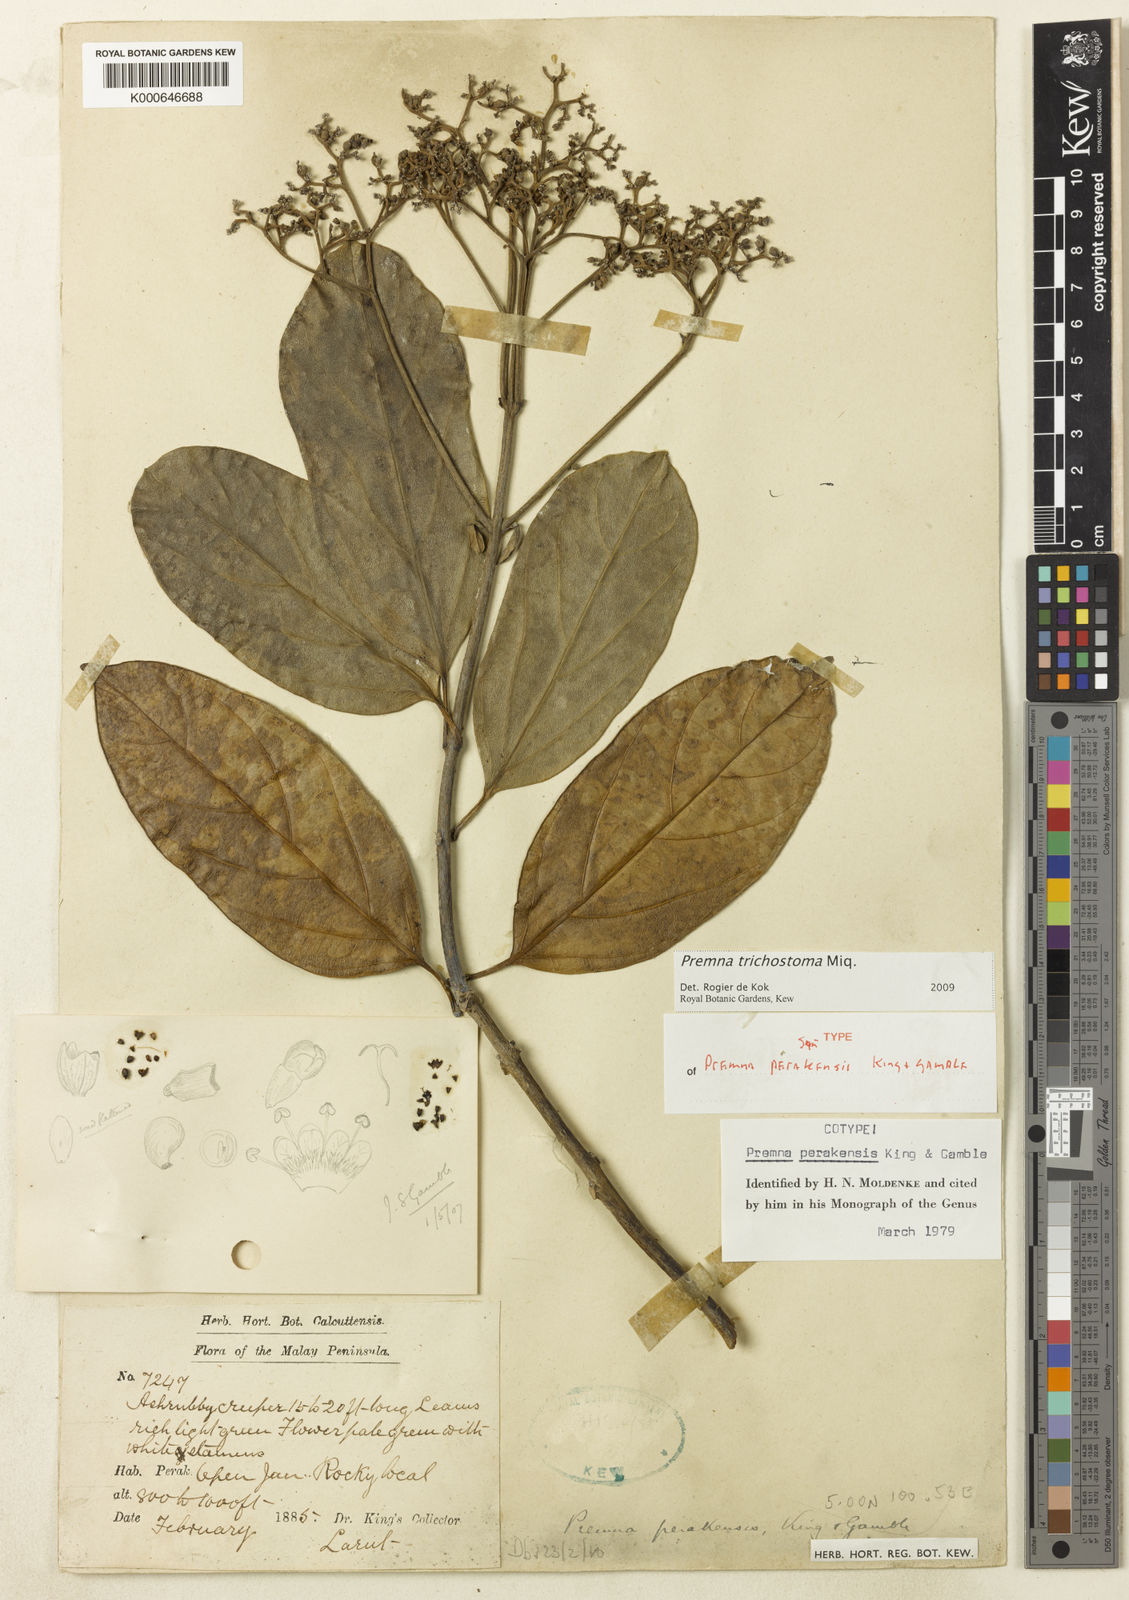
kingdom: Plantae
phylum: Tracheophyta
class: Magnoliopsida
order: Lamiales
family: Lamiaceae
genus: Premna
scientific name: Premna trichostoma
